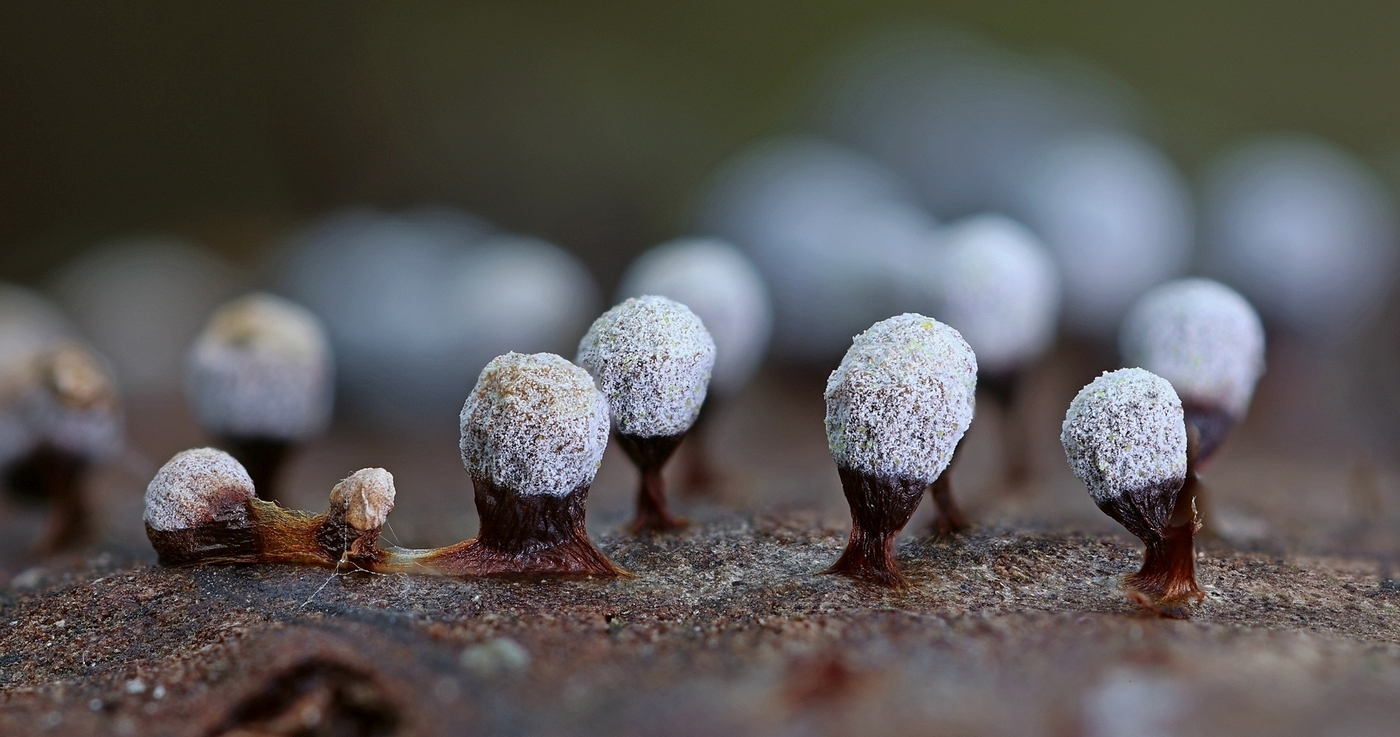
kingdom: Protozoa
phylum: Mycetozoa
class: Myxomycetes
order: Physarales
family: Physaraceae
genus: Craterium
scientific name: Craterium leucocephalum
